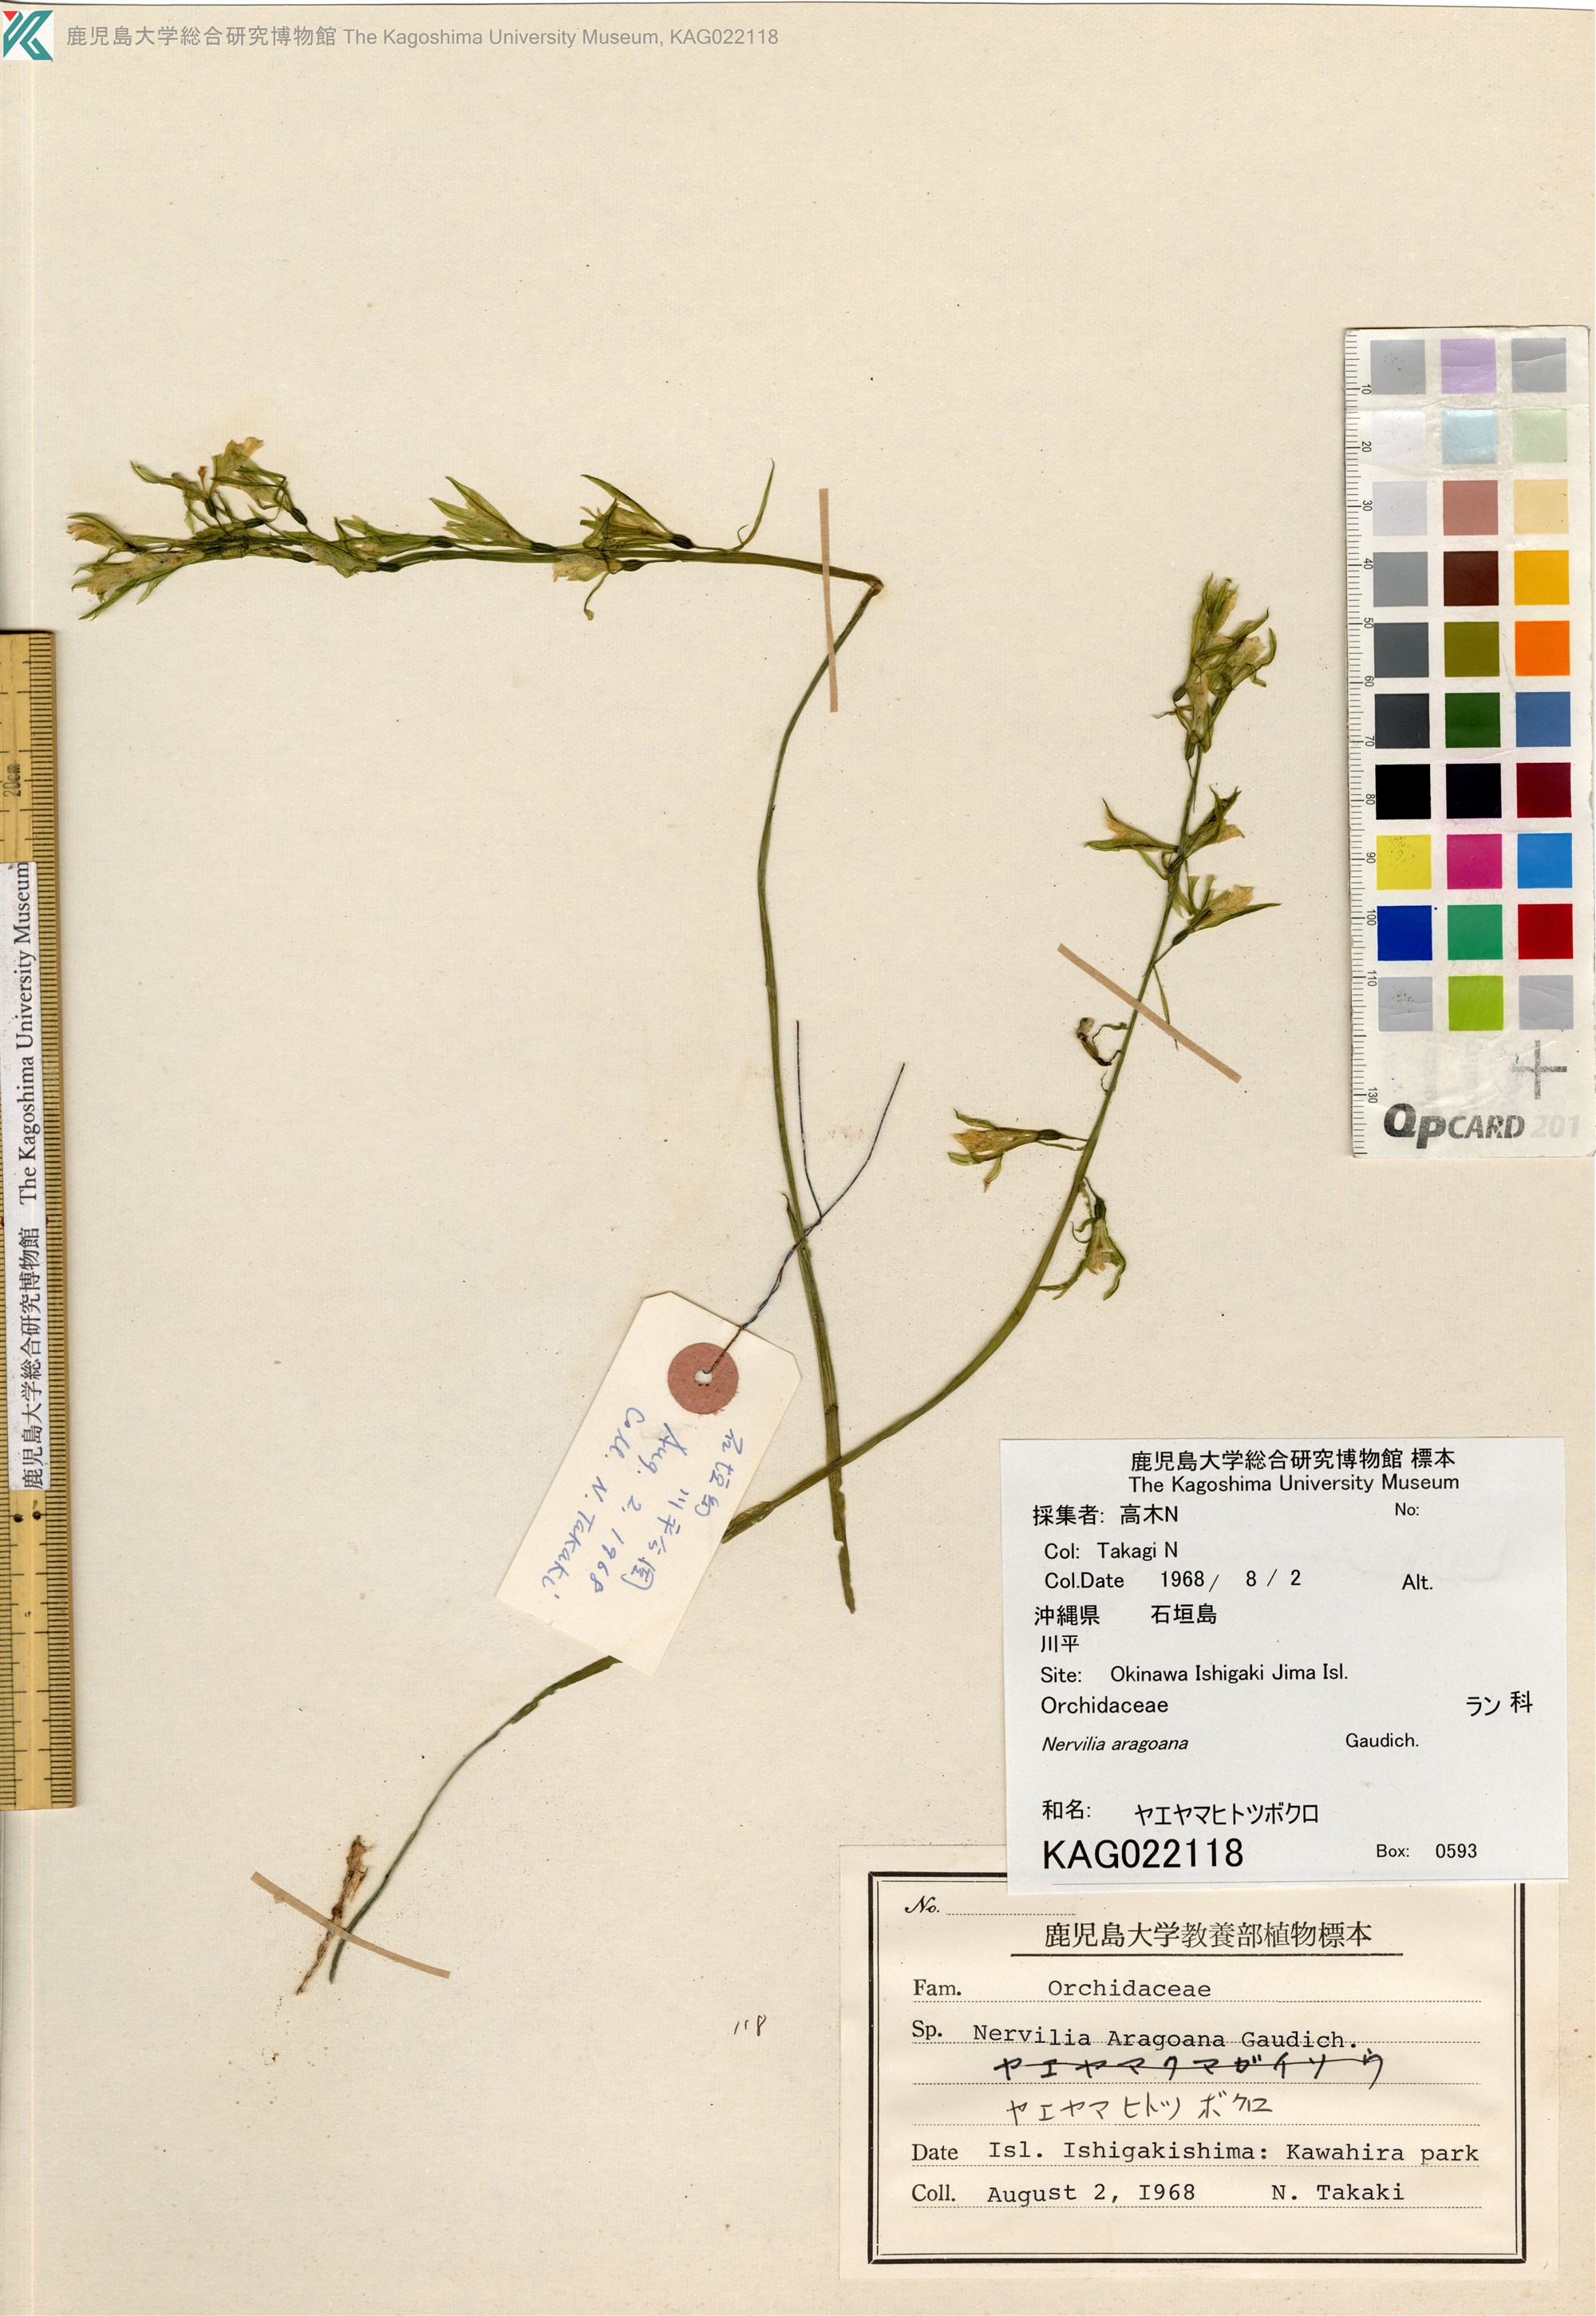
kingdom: Plantae
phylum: Tracheophyta
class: Liliopsida
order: Asparagales
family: Orchidaceae
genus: Nervilia
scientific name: Nervilia concolor
